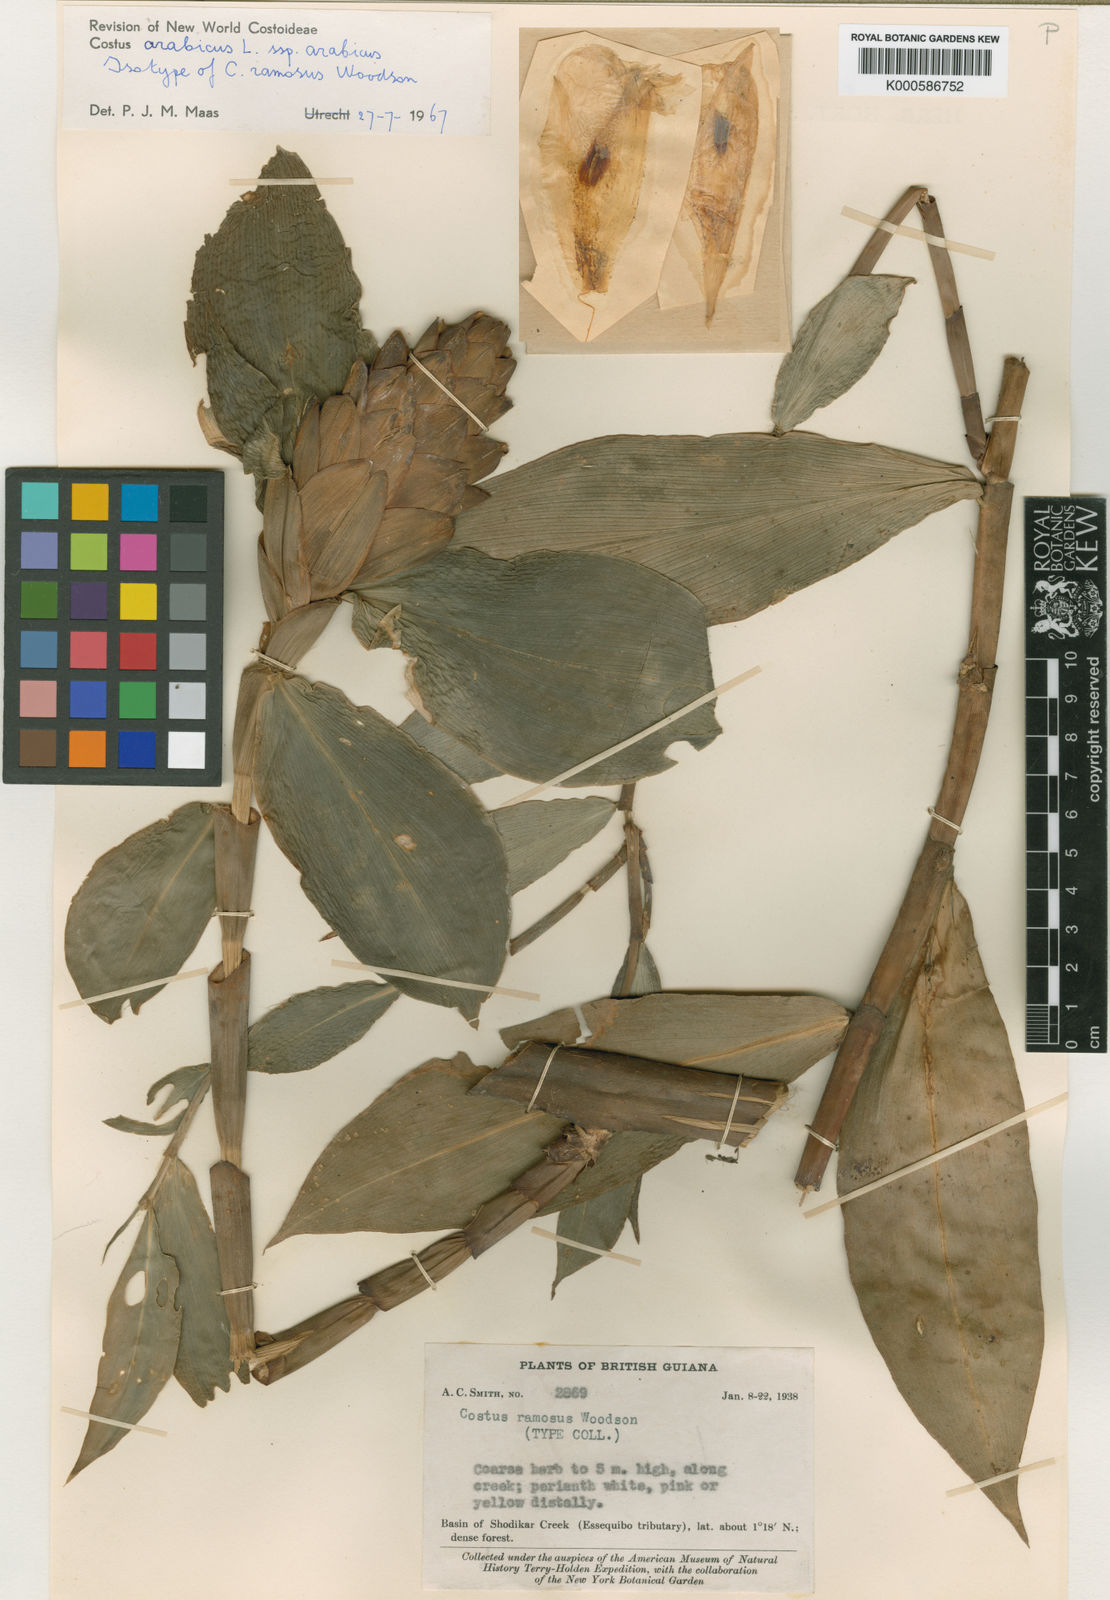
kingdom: Plantae
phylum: Tracheophyta
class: Liliopsida
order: Zingiberales
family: Costaceae
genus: Costus
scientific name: Costus arabicus
